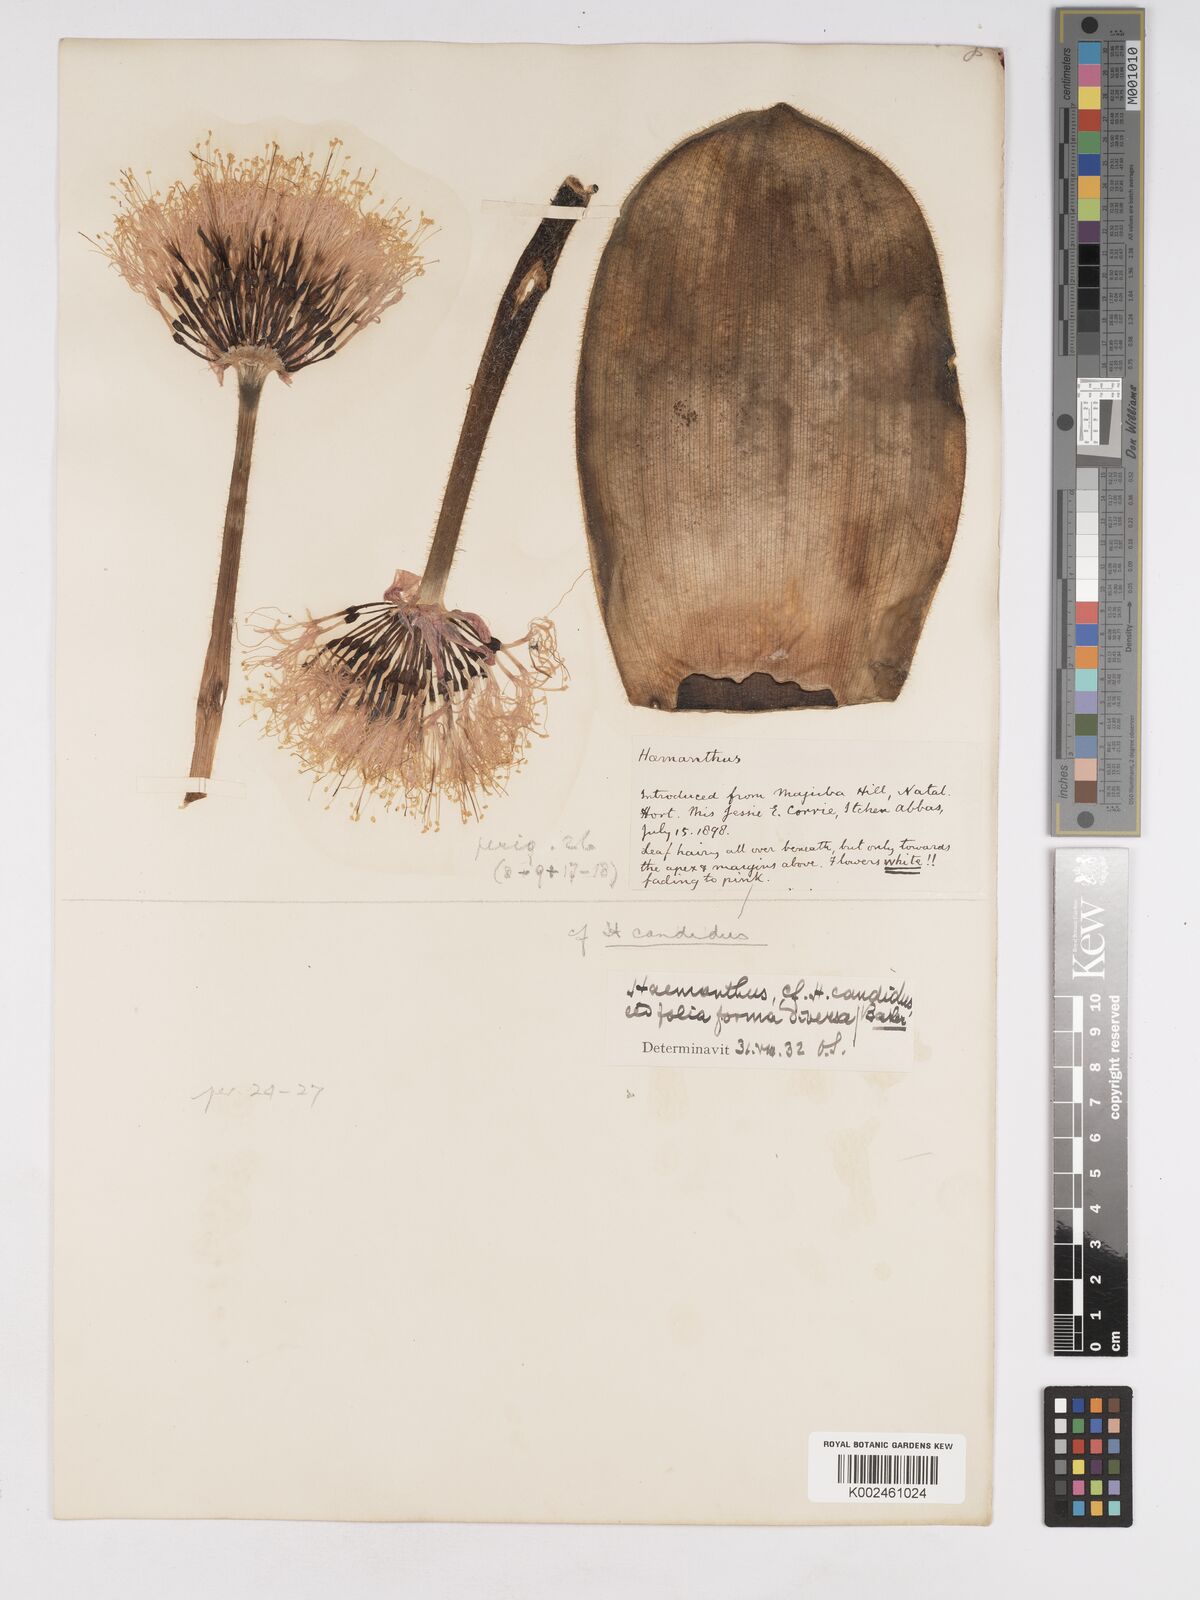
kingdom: Plantae
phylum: Tracheophyta
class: Liliopsida
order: Asparagales
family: Amaryllidaceae
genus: Haemanthus
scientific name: Haemanthus humilis
